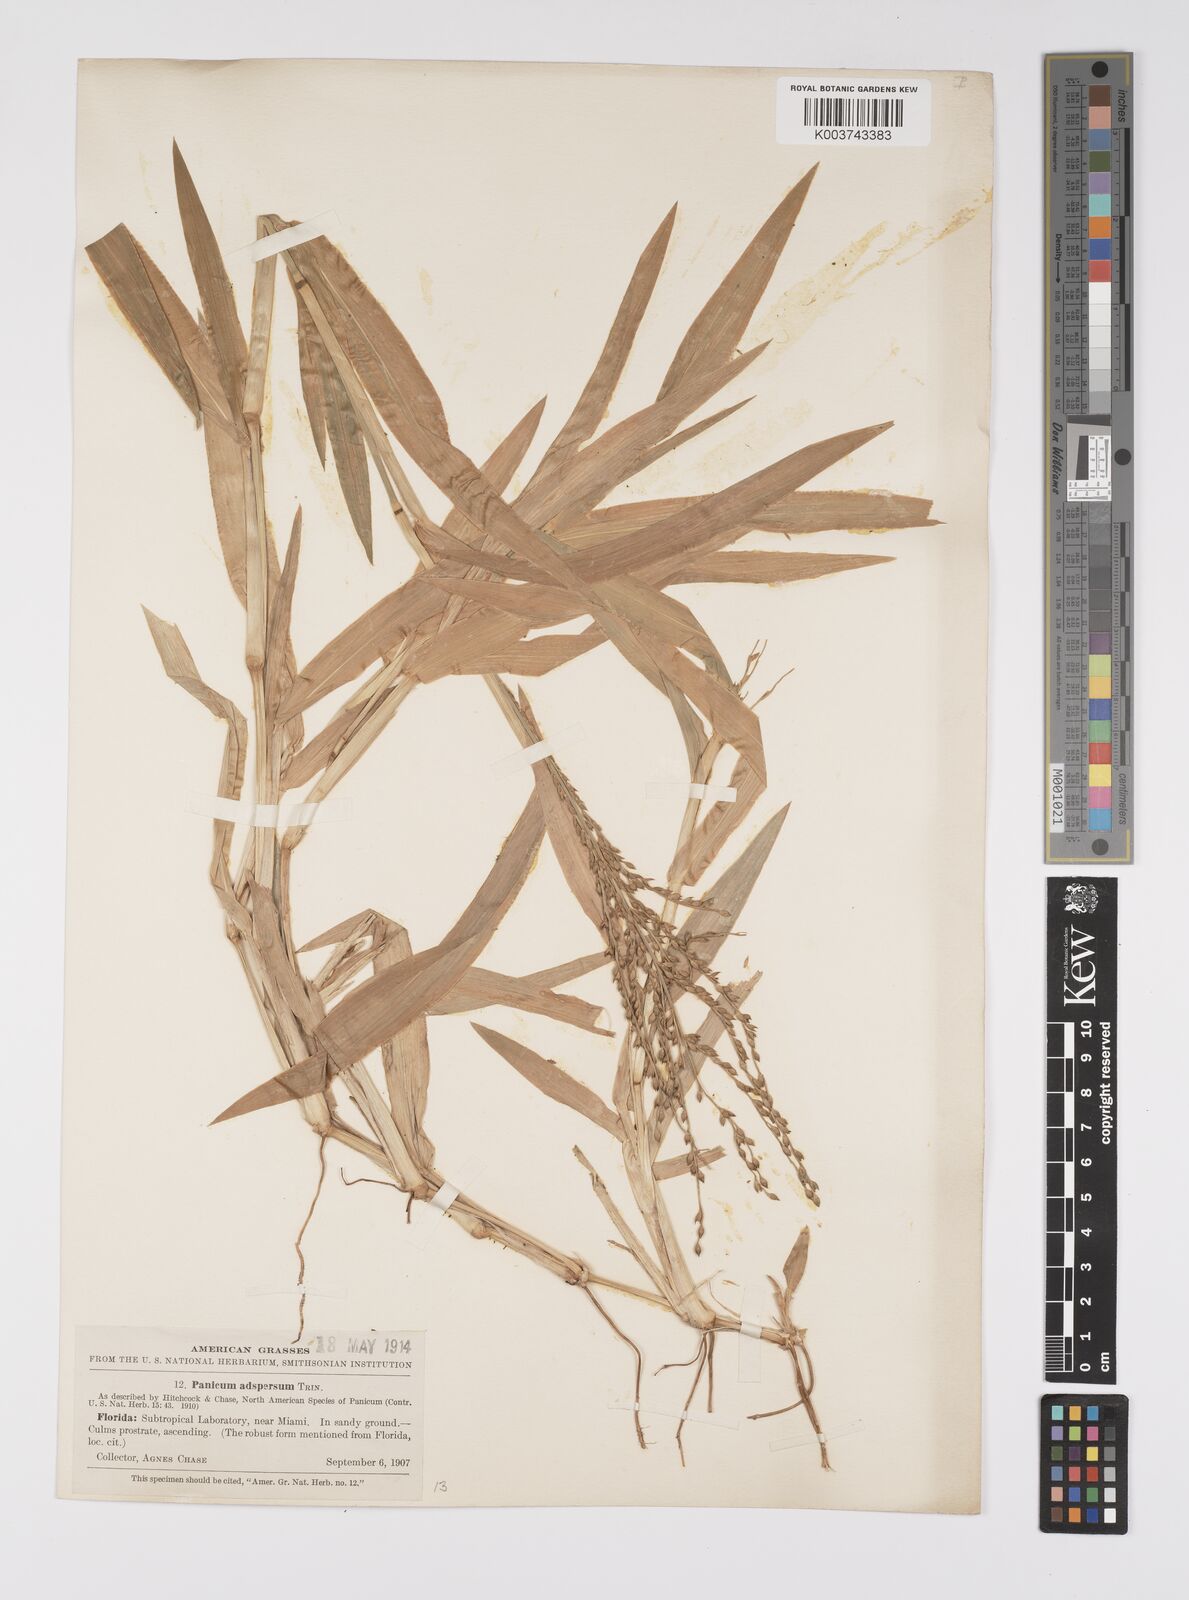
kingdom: Plantae
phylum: Tracheophyta
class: Liliopsida
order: Poales
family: Poaceae
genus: Urochloa
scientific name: Urochloa adspersa
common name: Dominican signal grass
